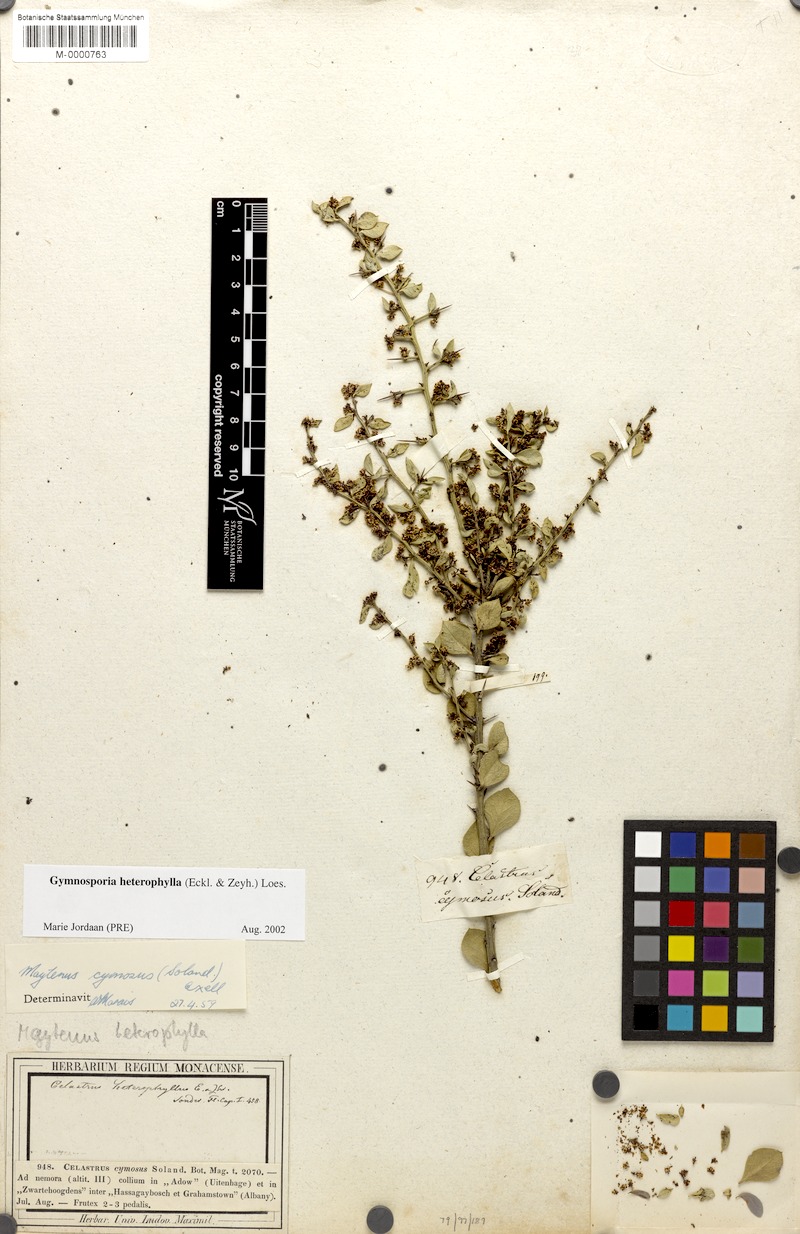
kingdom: Plantae
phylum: Tracheophyta
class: Magnoliopsida
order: Celastrales
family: Celastraceae
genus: Gymnosporia
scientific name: Gymnosporia heterophylla
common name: Angle-stem spikethorn
